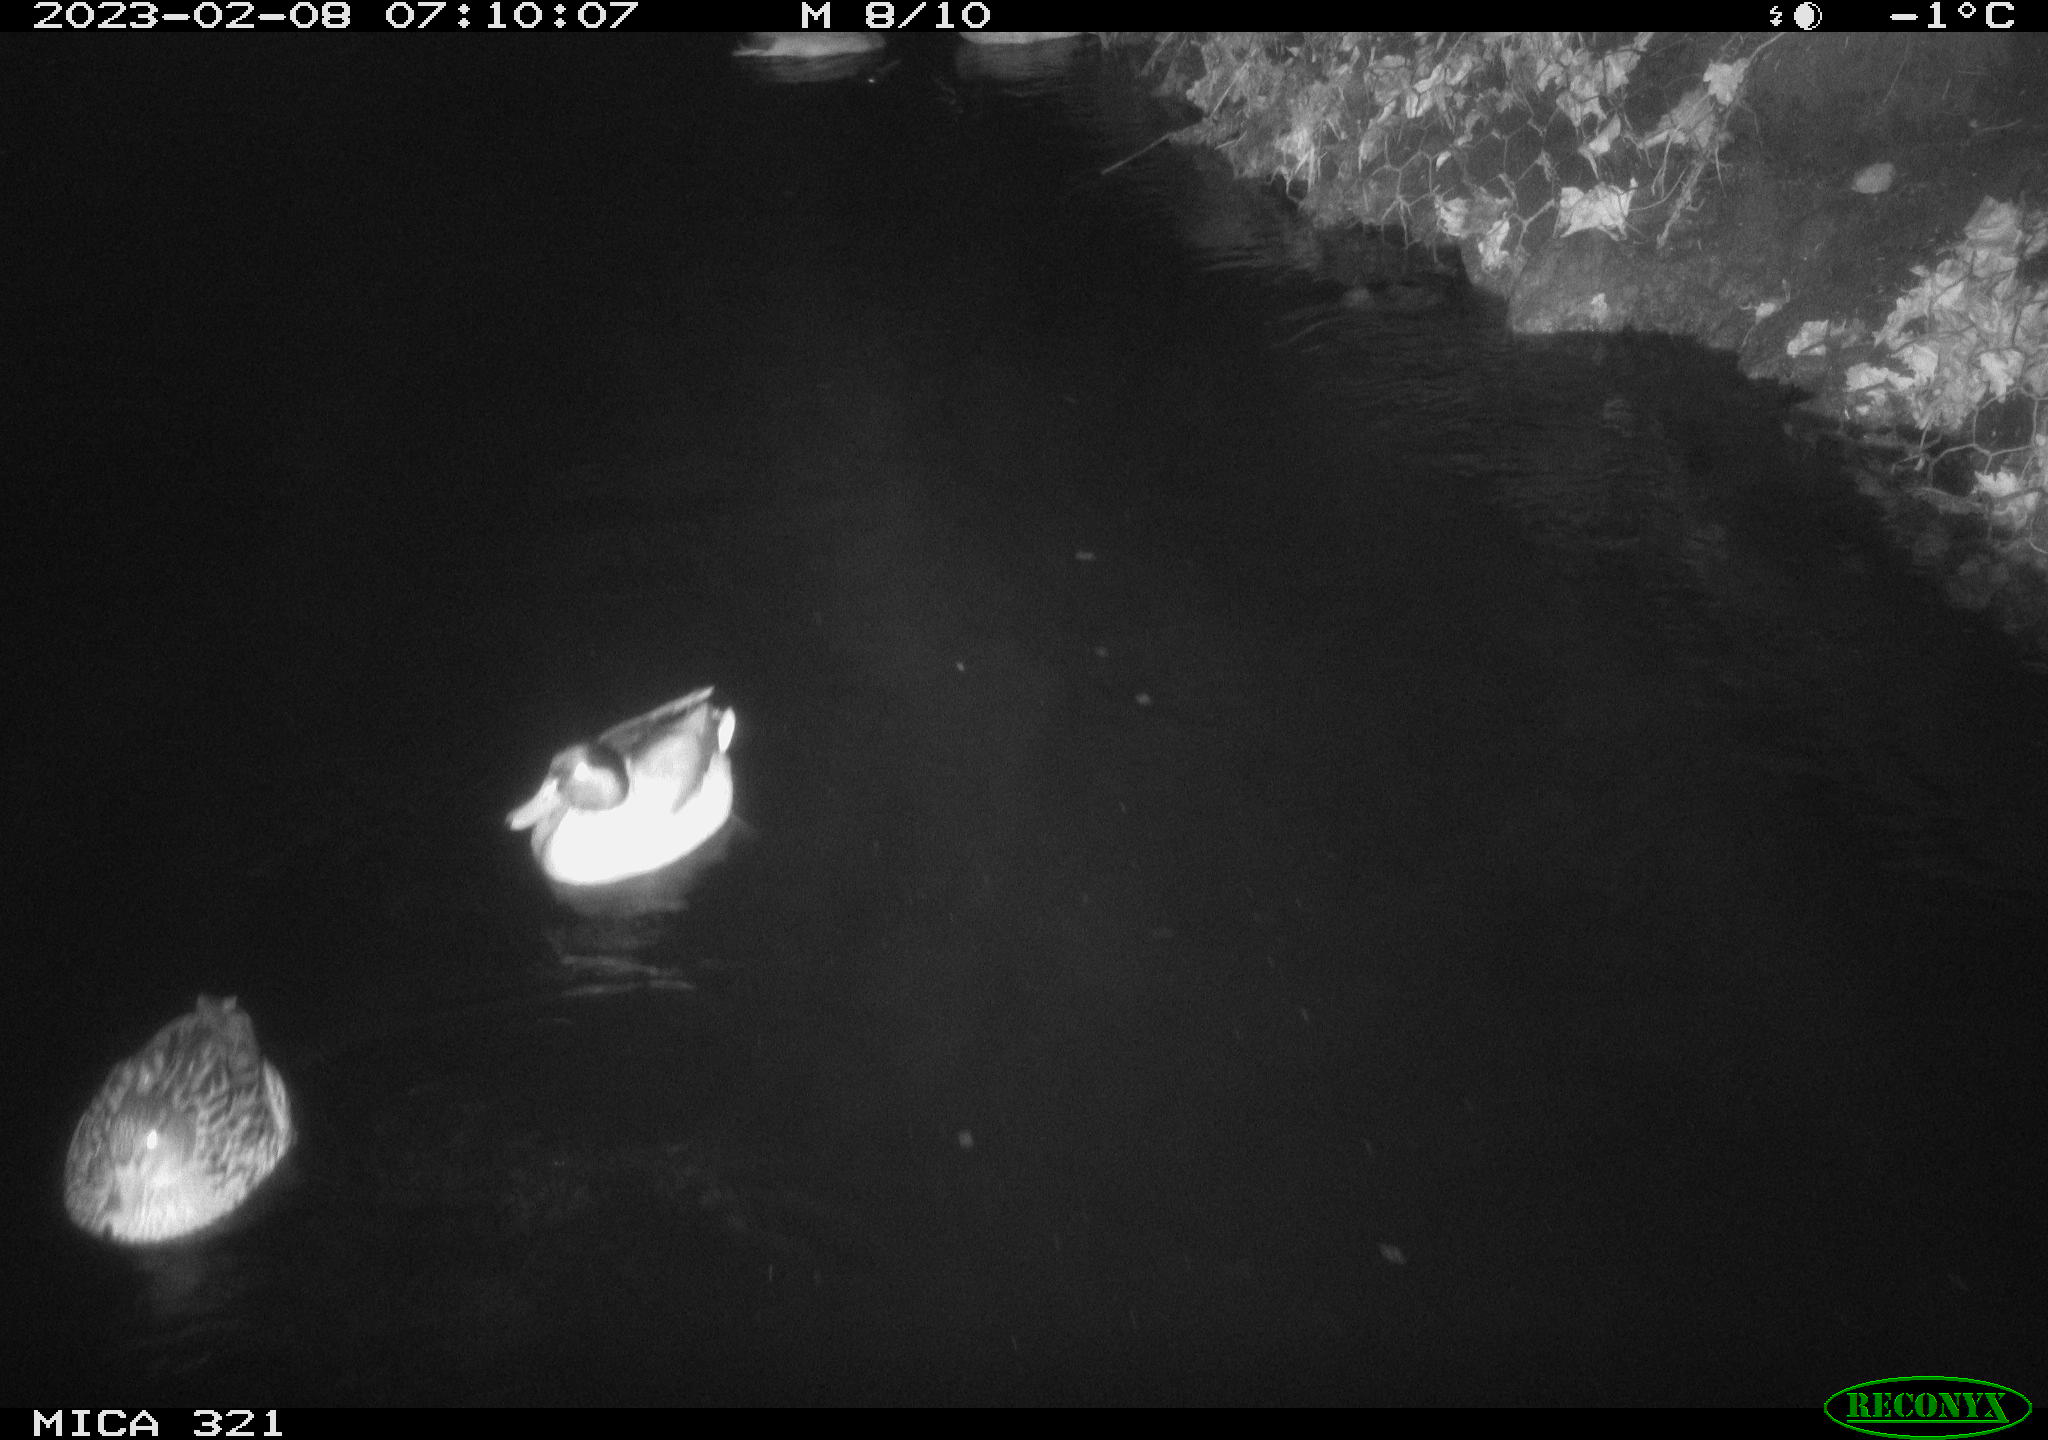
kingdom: Animalia
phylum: Chordata
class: Aves
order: Anseriformes
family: Anatidae
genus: Anas
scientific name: Anas
